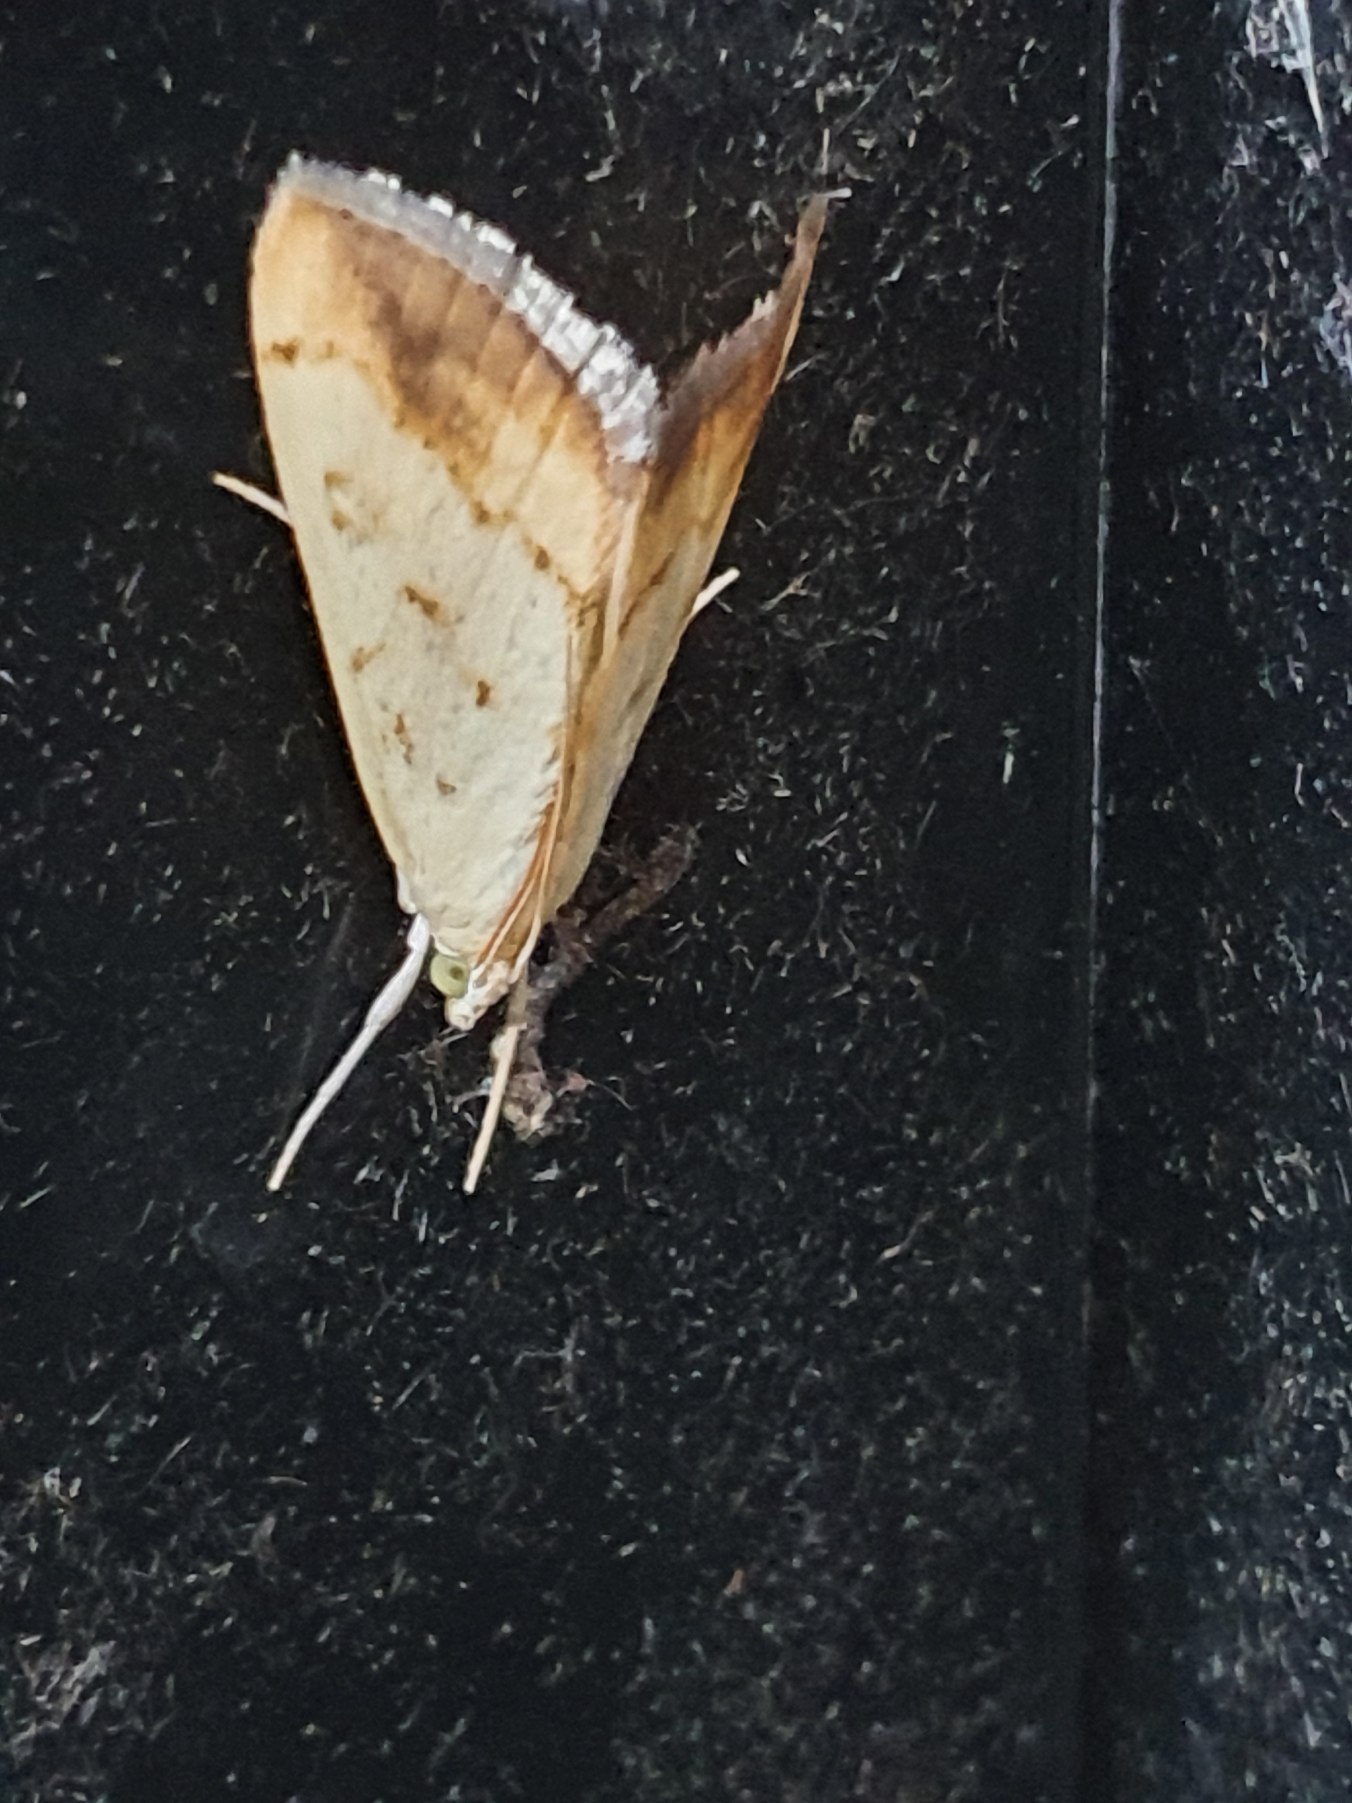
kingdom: Animalia
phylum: Arthropoda
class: Insecta
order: Lepidoptera
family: Crambidae
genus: Evergestis
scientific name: Evergestis extimalis
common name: Korsblomsthalvmøl
